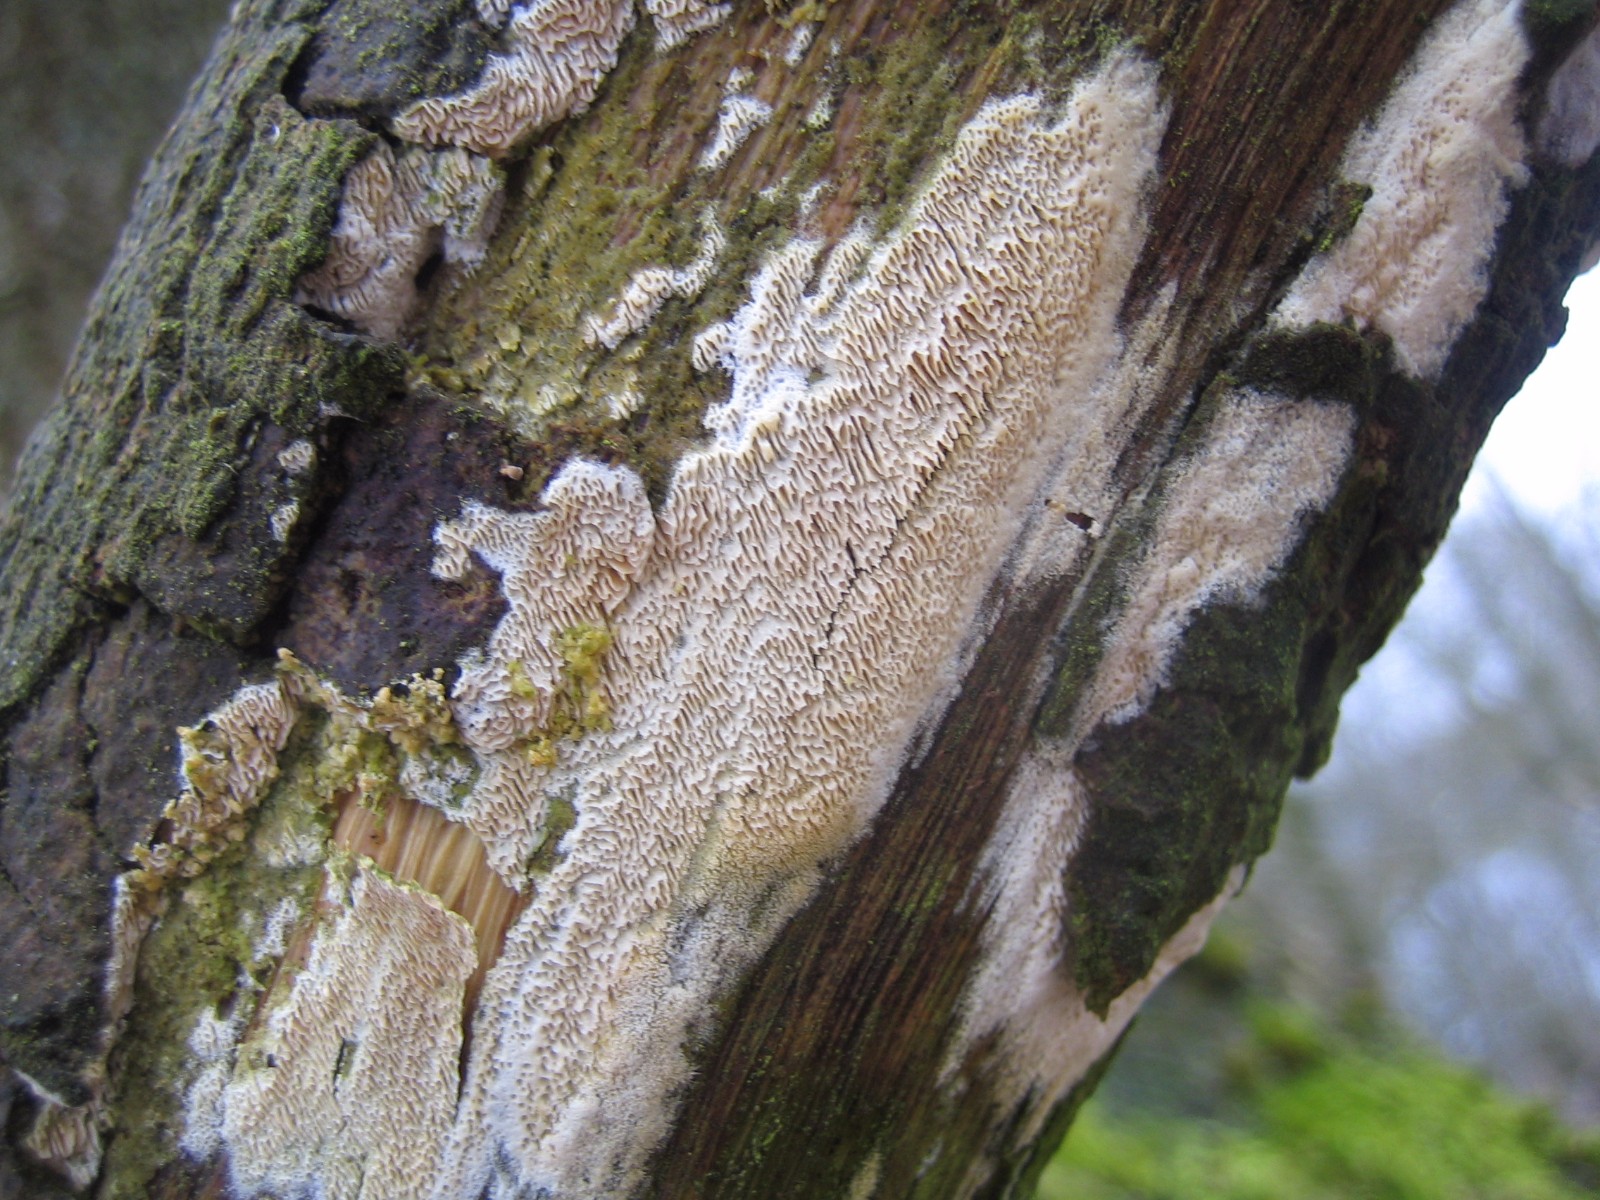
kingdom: Fungi
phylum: Basidiomycota
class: Agaricomycetes
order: Hymenochaetales
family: Schizoporaceae
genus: Xylodon
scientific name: Xylodon subtropicus
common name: labyrint-tandsvamp
